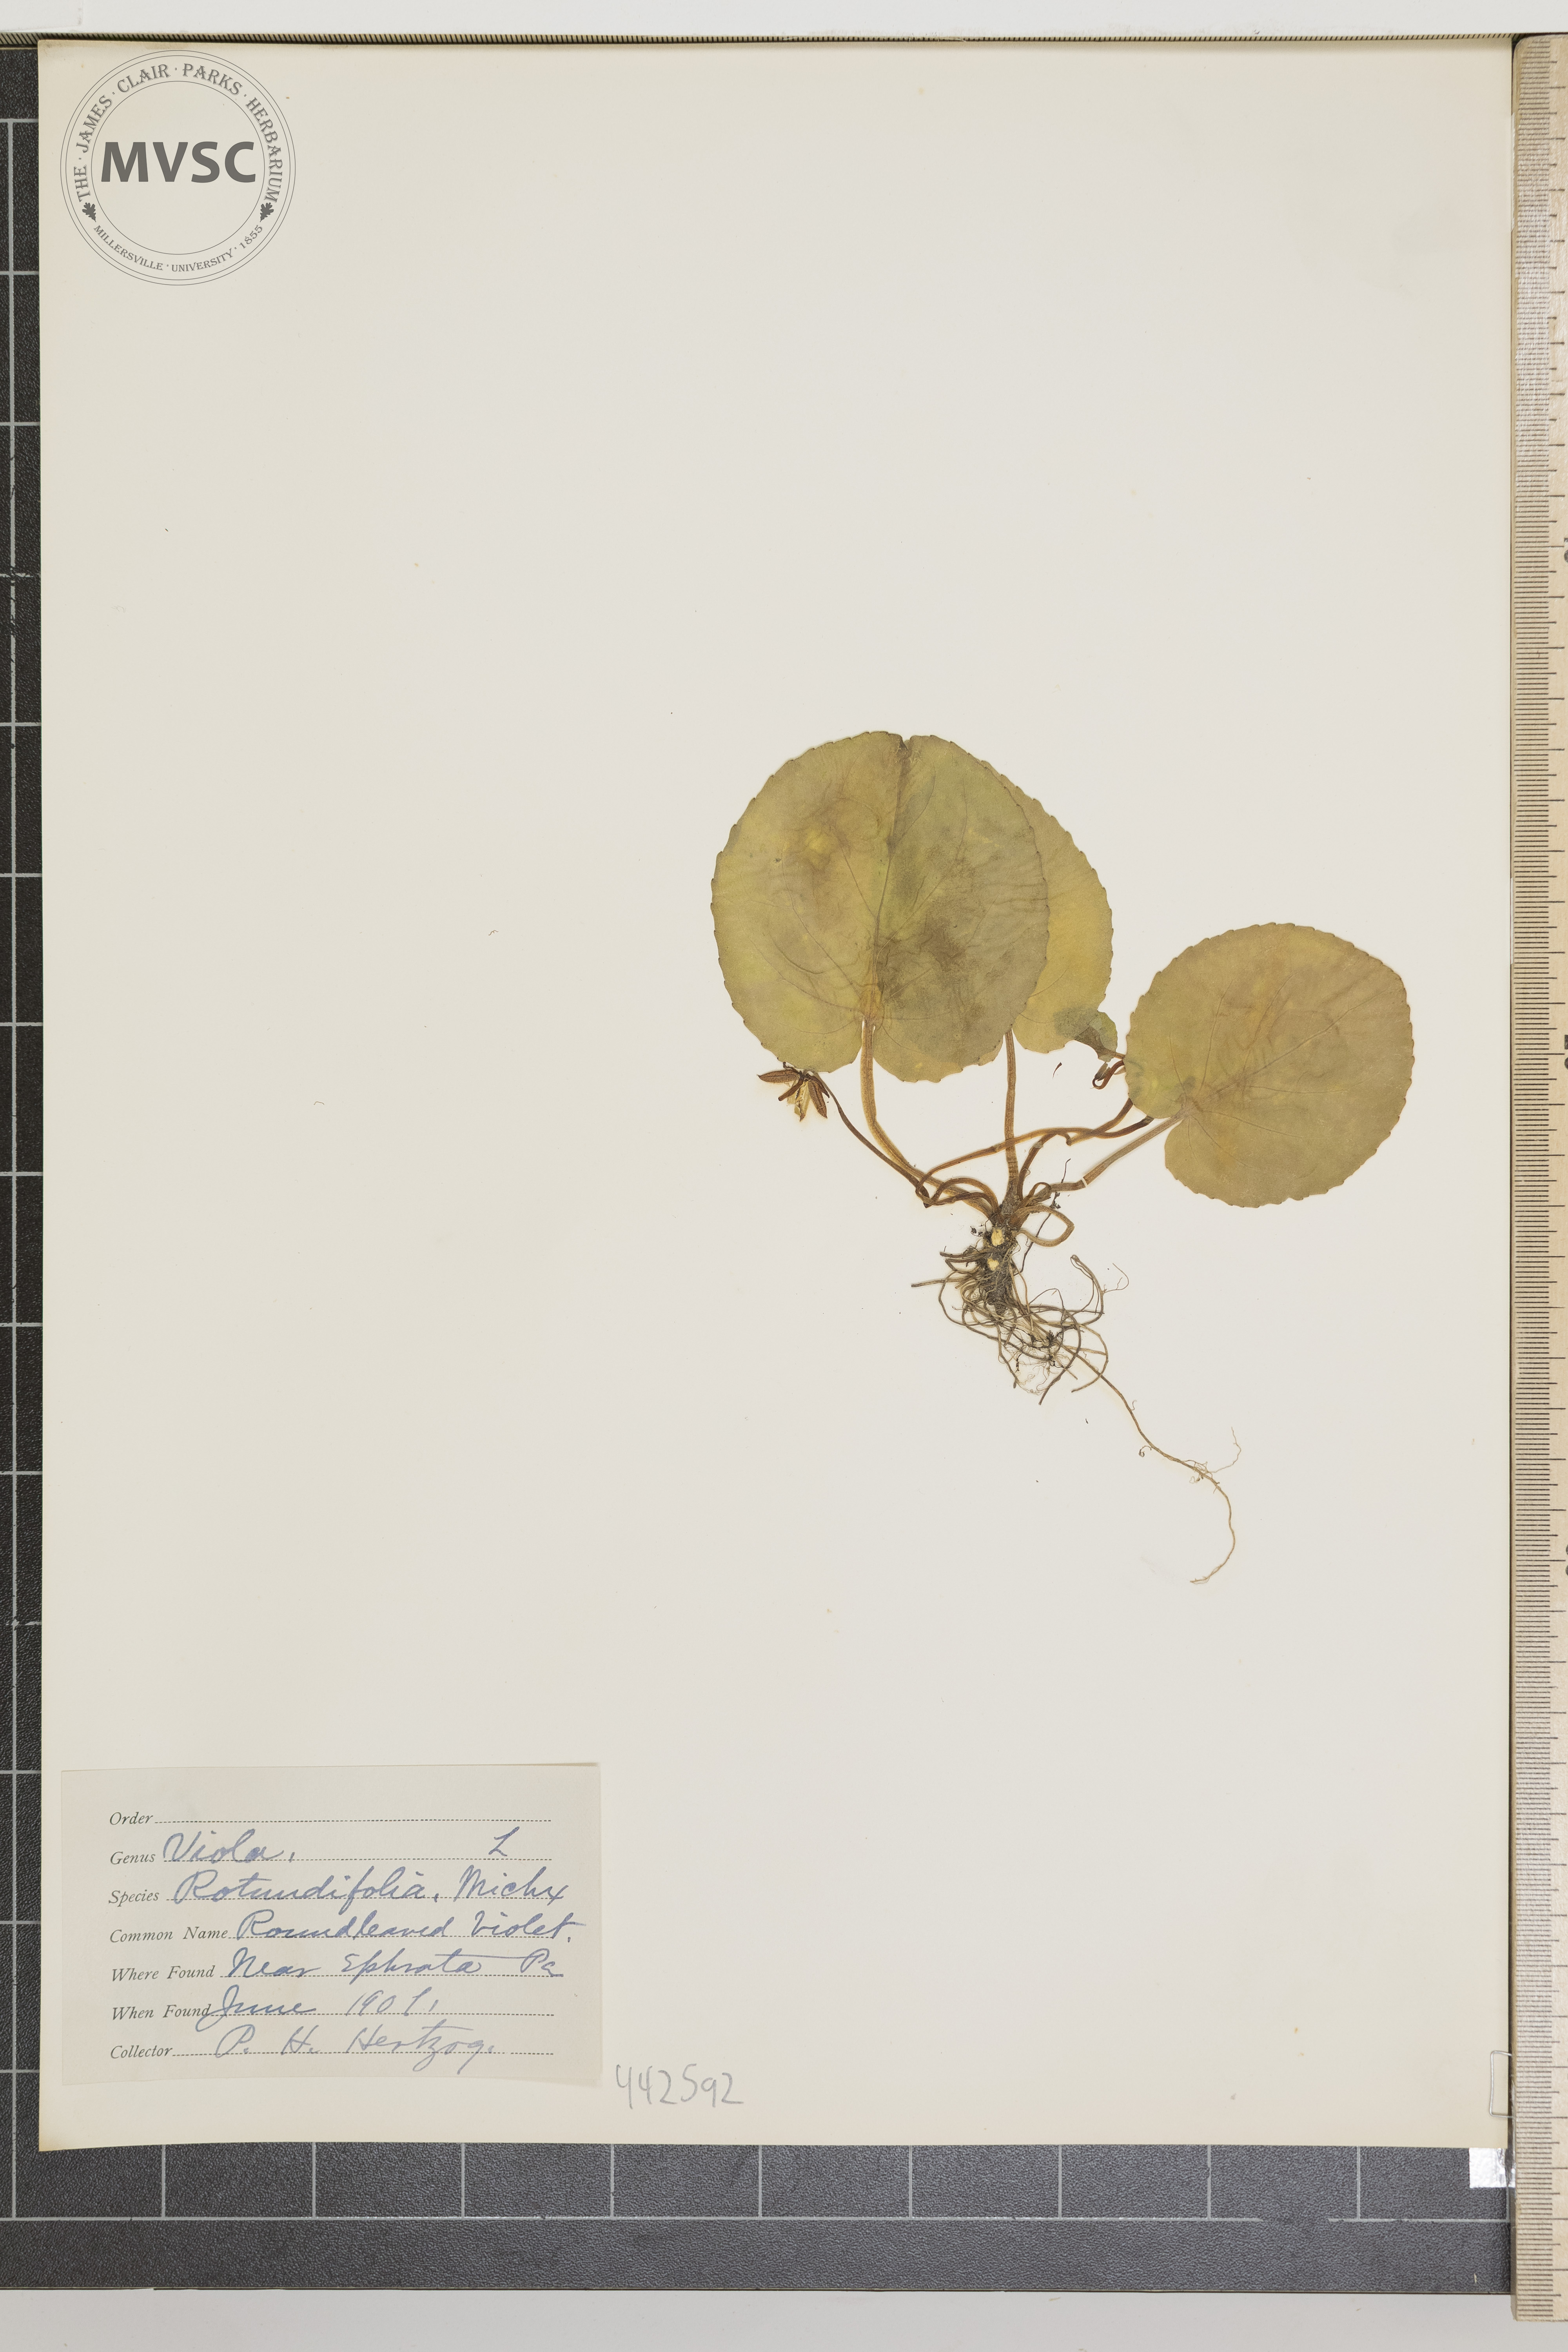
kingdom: Plantae
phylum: Tracheophyta
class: Magnoliopsida
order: Malpighiales
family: Violaceae
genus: Viola
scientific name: Viola rotundifolia
